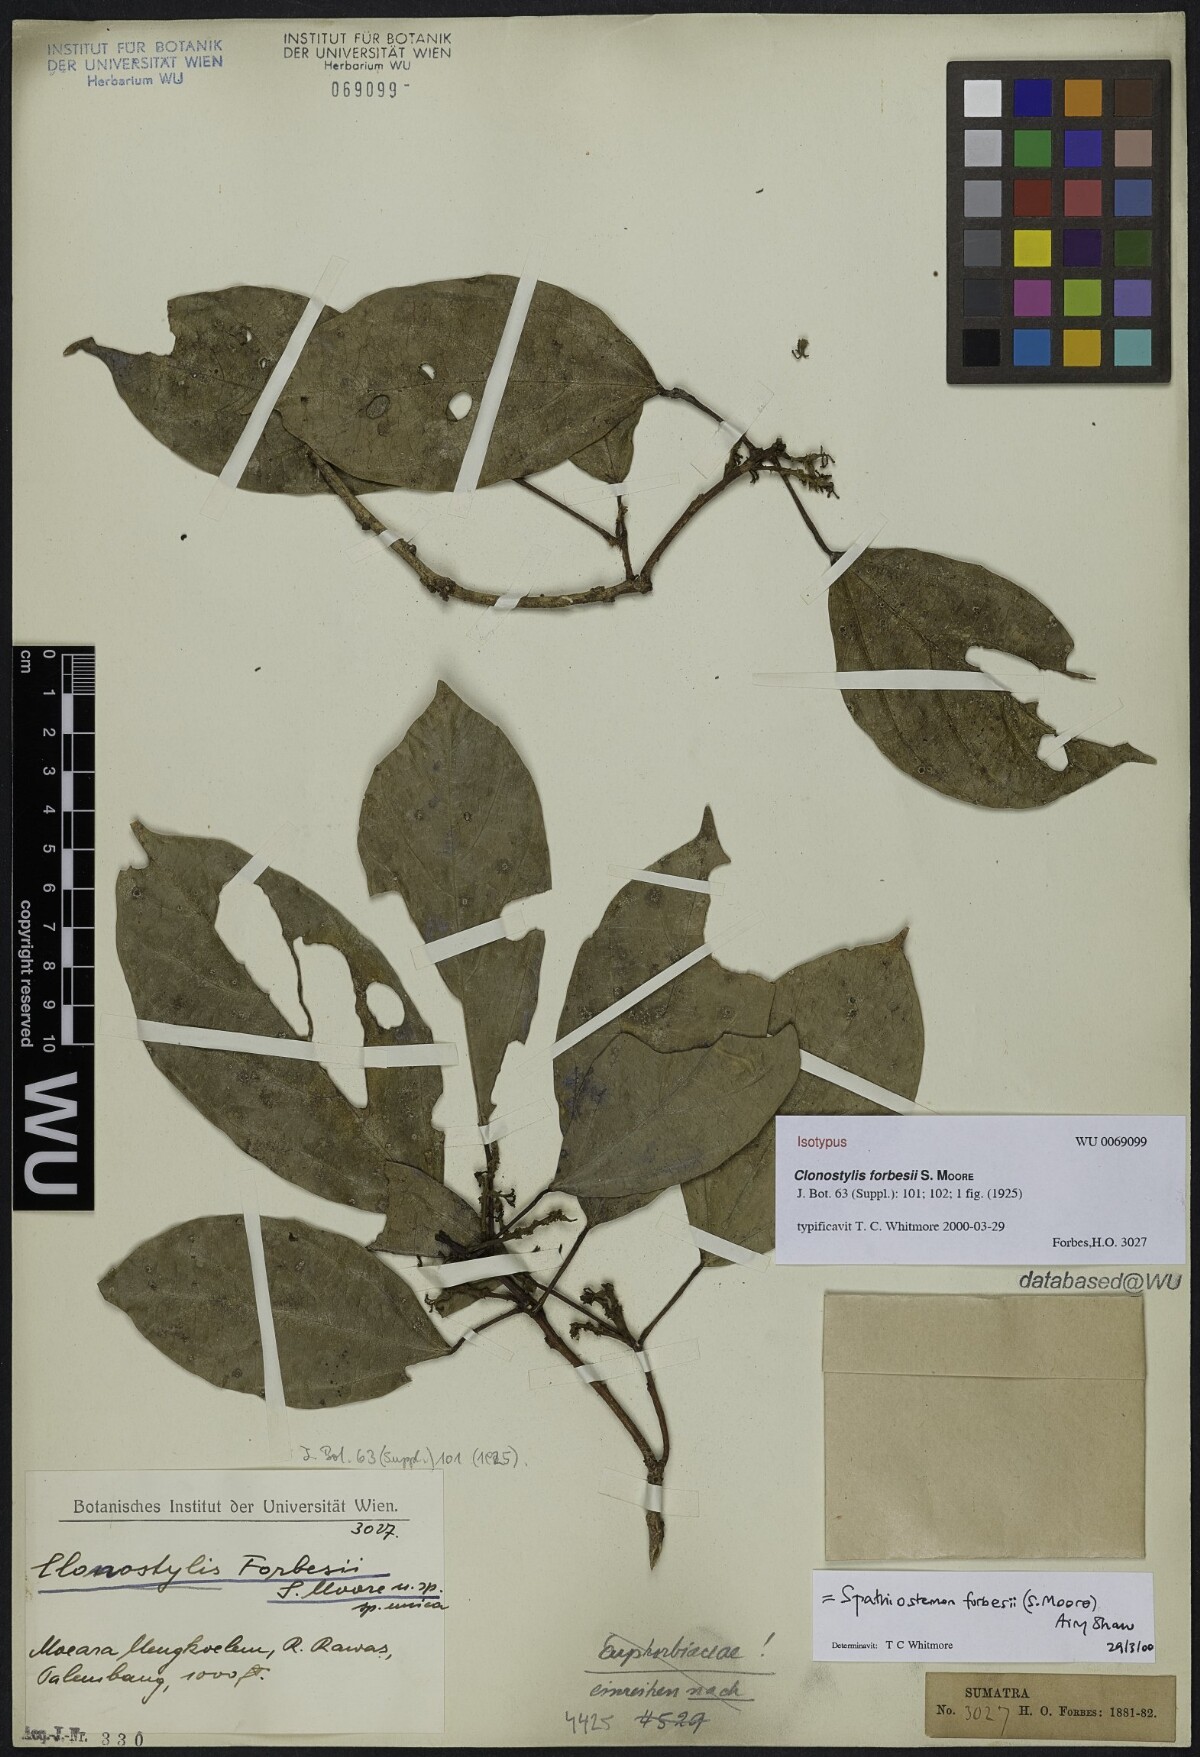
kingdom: Plantae
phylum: Tracheophyta
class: Magnoliopsida
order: Malpighiales
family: Euphorbiaceae
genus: Clonostylis
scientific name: Clonostylis forbesii
